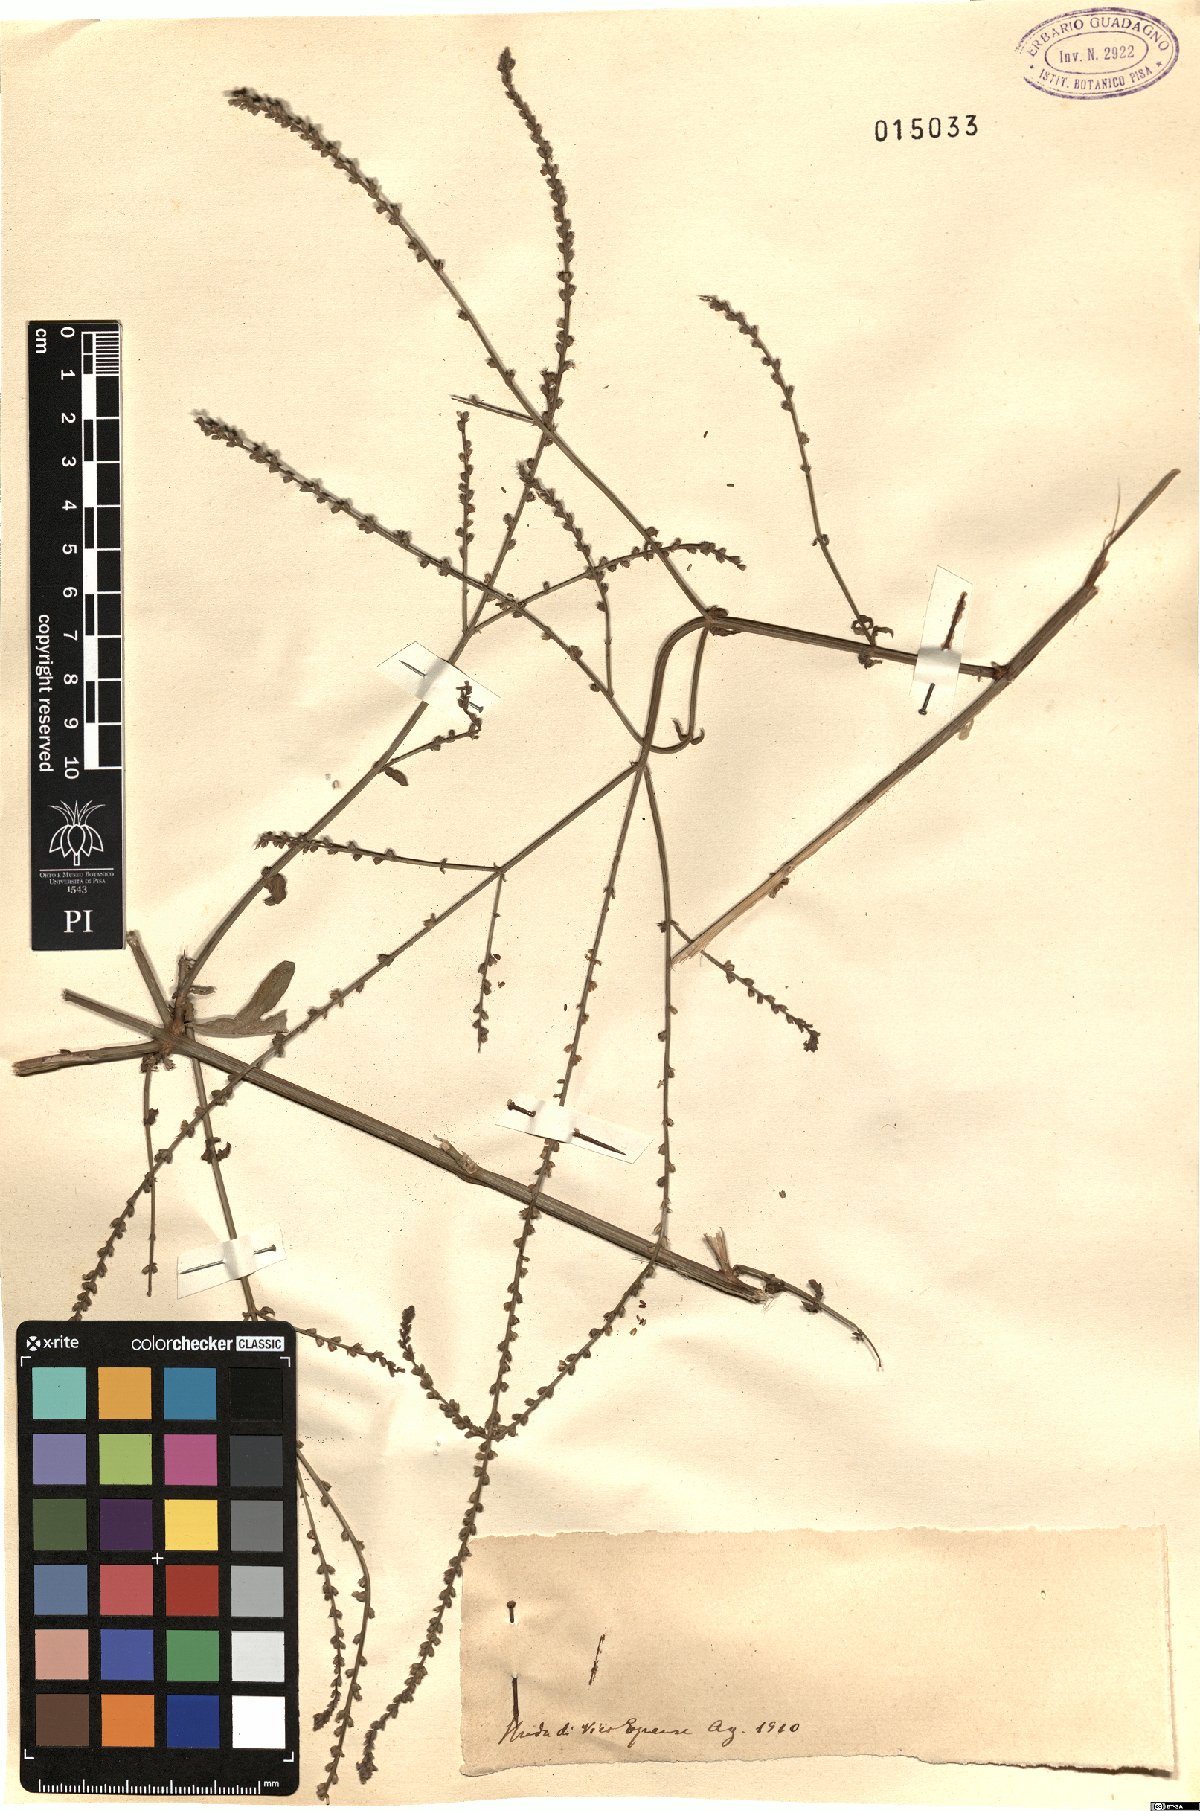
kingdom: Plantae
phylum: Tracheophyta
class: Magnoliopsida
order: Lamiales
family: Verbenaceae
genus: Verbena
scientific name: Verbena
